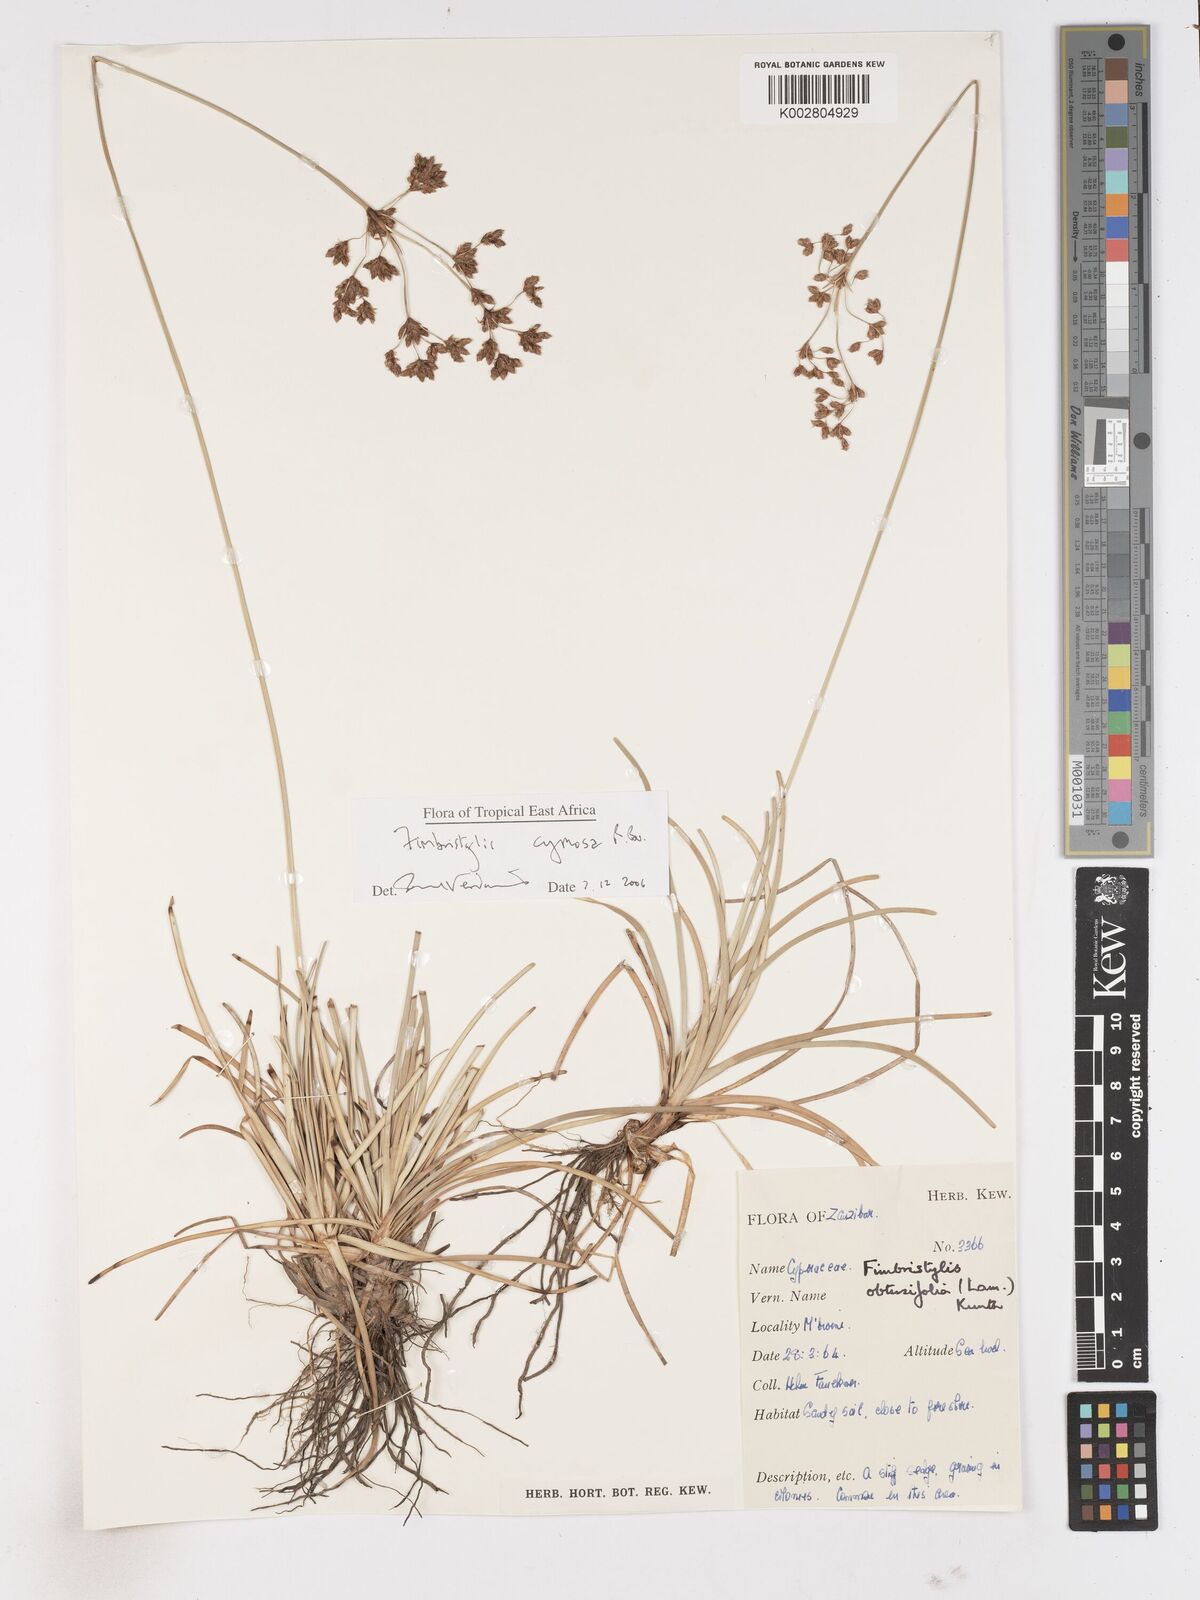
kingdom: Plantae
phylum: Tracheophyta
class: Liliopsida
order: Poales
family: Cyperaceae
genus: Fimbristylis
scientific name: Fimbristylis cymosa
